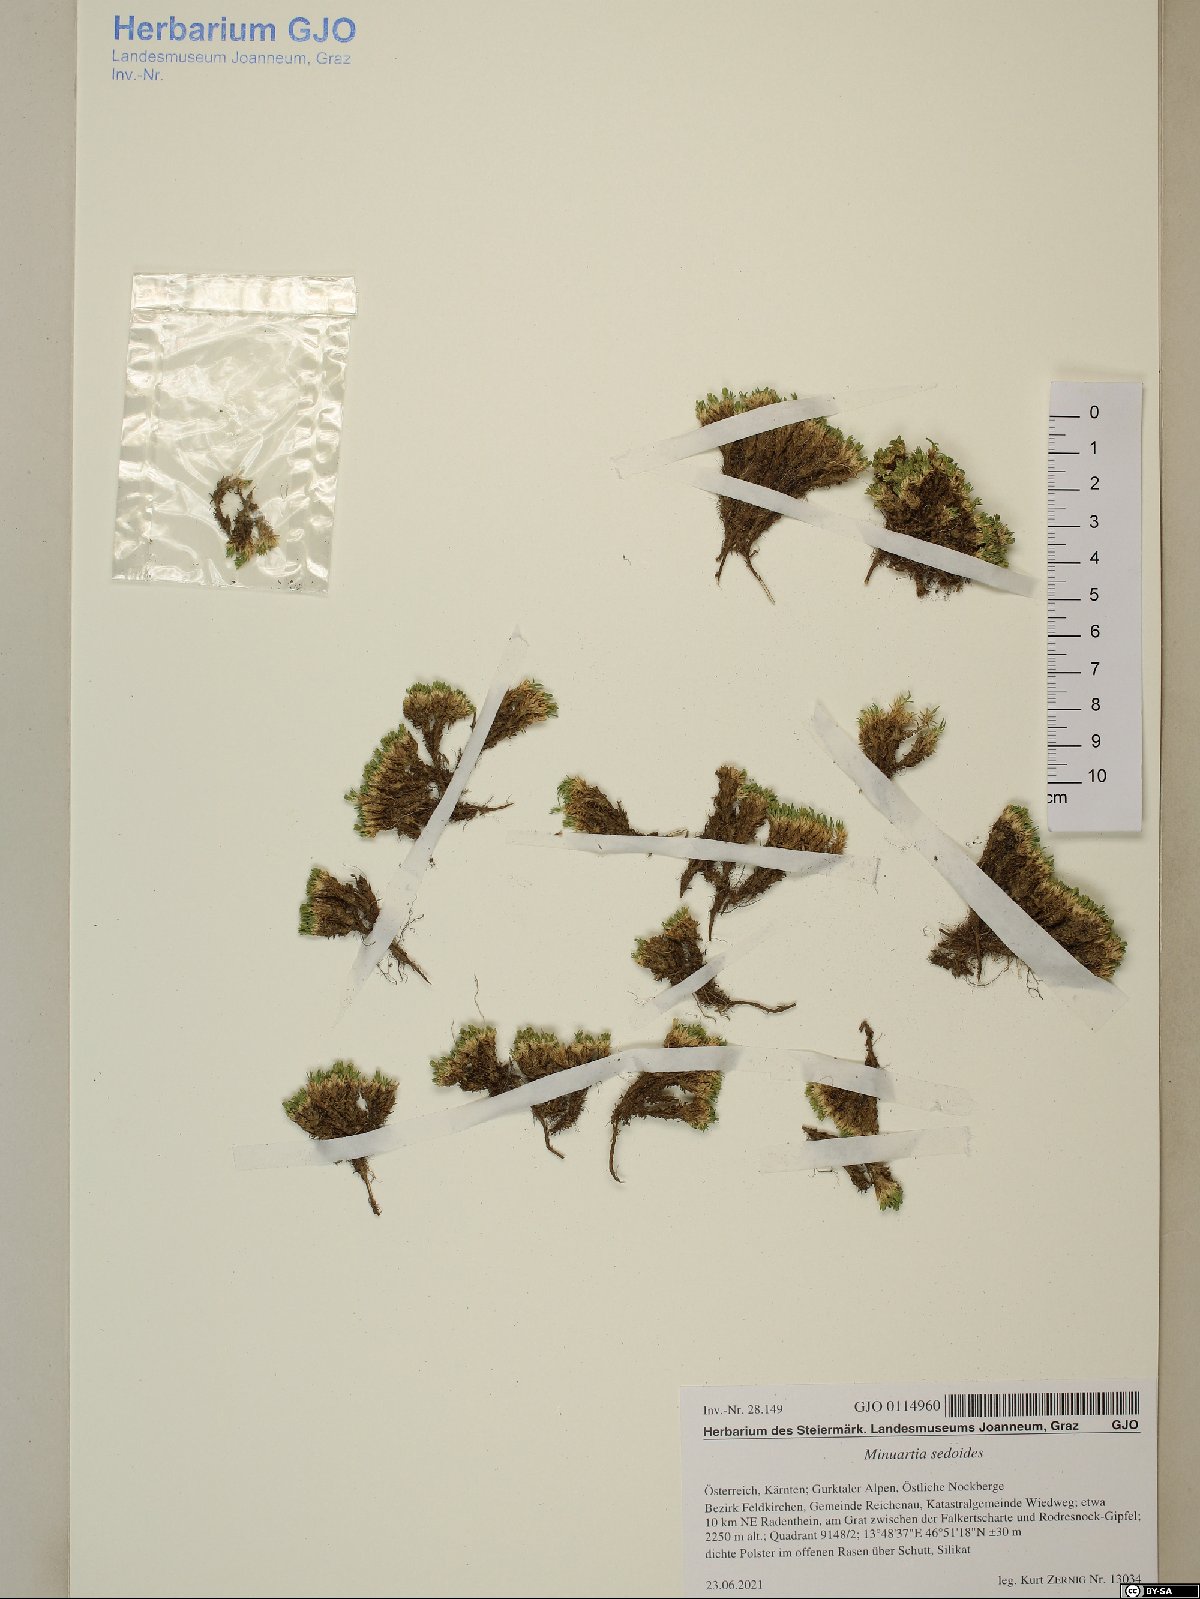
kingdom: Plantae
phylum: Tracheophyta
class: Magnoliopsida
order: Caryophyllales
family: Caryophyllaceae
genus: Cherleria
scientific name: Cherleria sedoides
